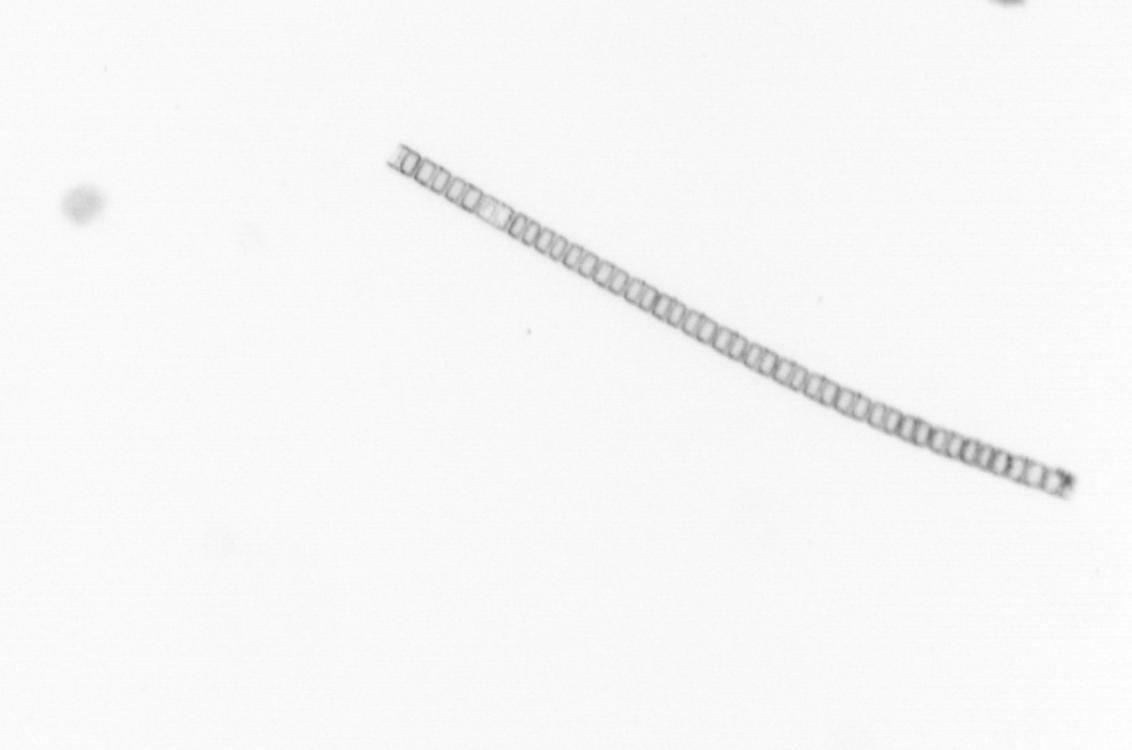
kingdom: Chromista
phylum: Ochrophyta
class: Bacillariophyceae
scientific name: Bacillariophyceae
